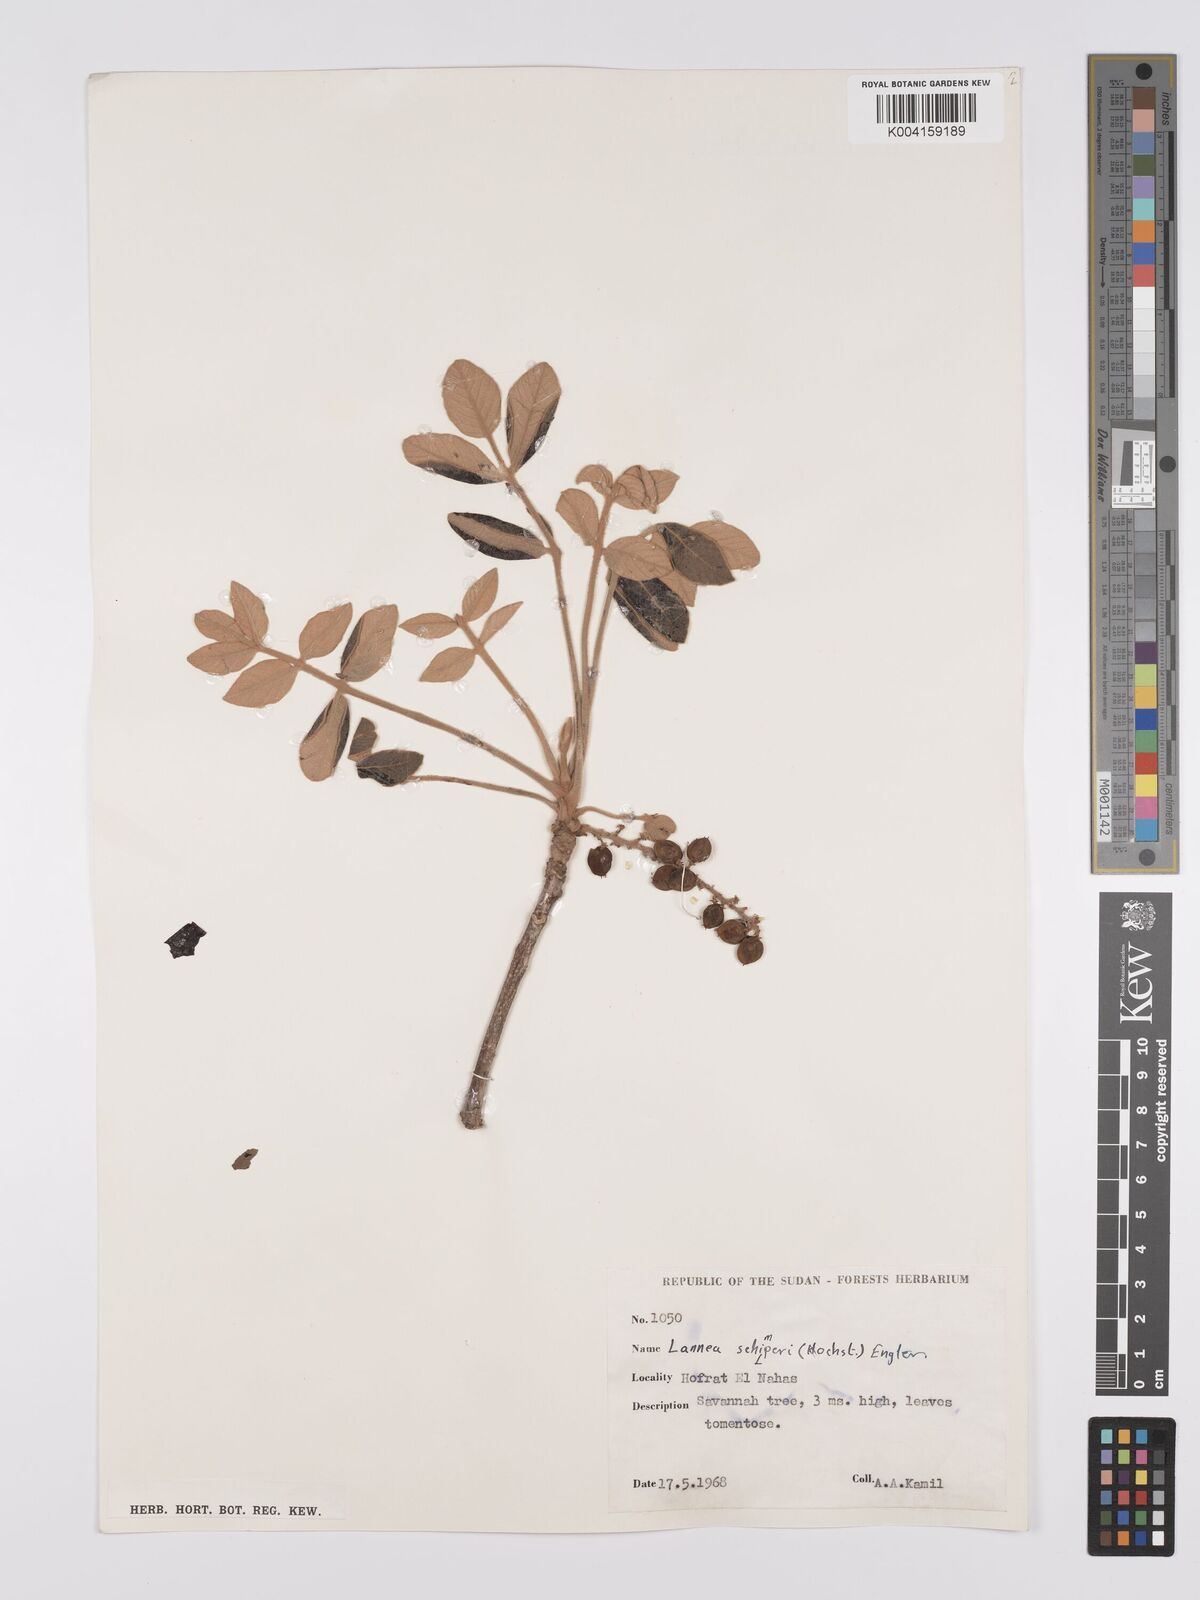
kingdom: Plantae
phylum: Tracheophyta
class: Magnoliopsida
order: Sapindales
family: Anacardiaceae
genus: Lannea
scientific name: Lannea schimperi
